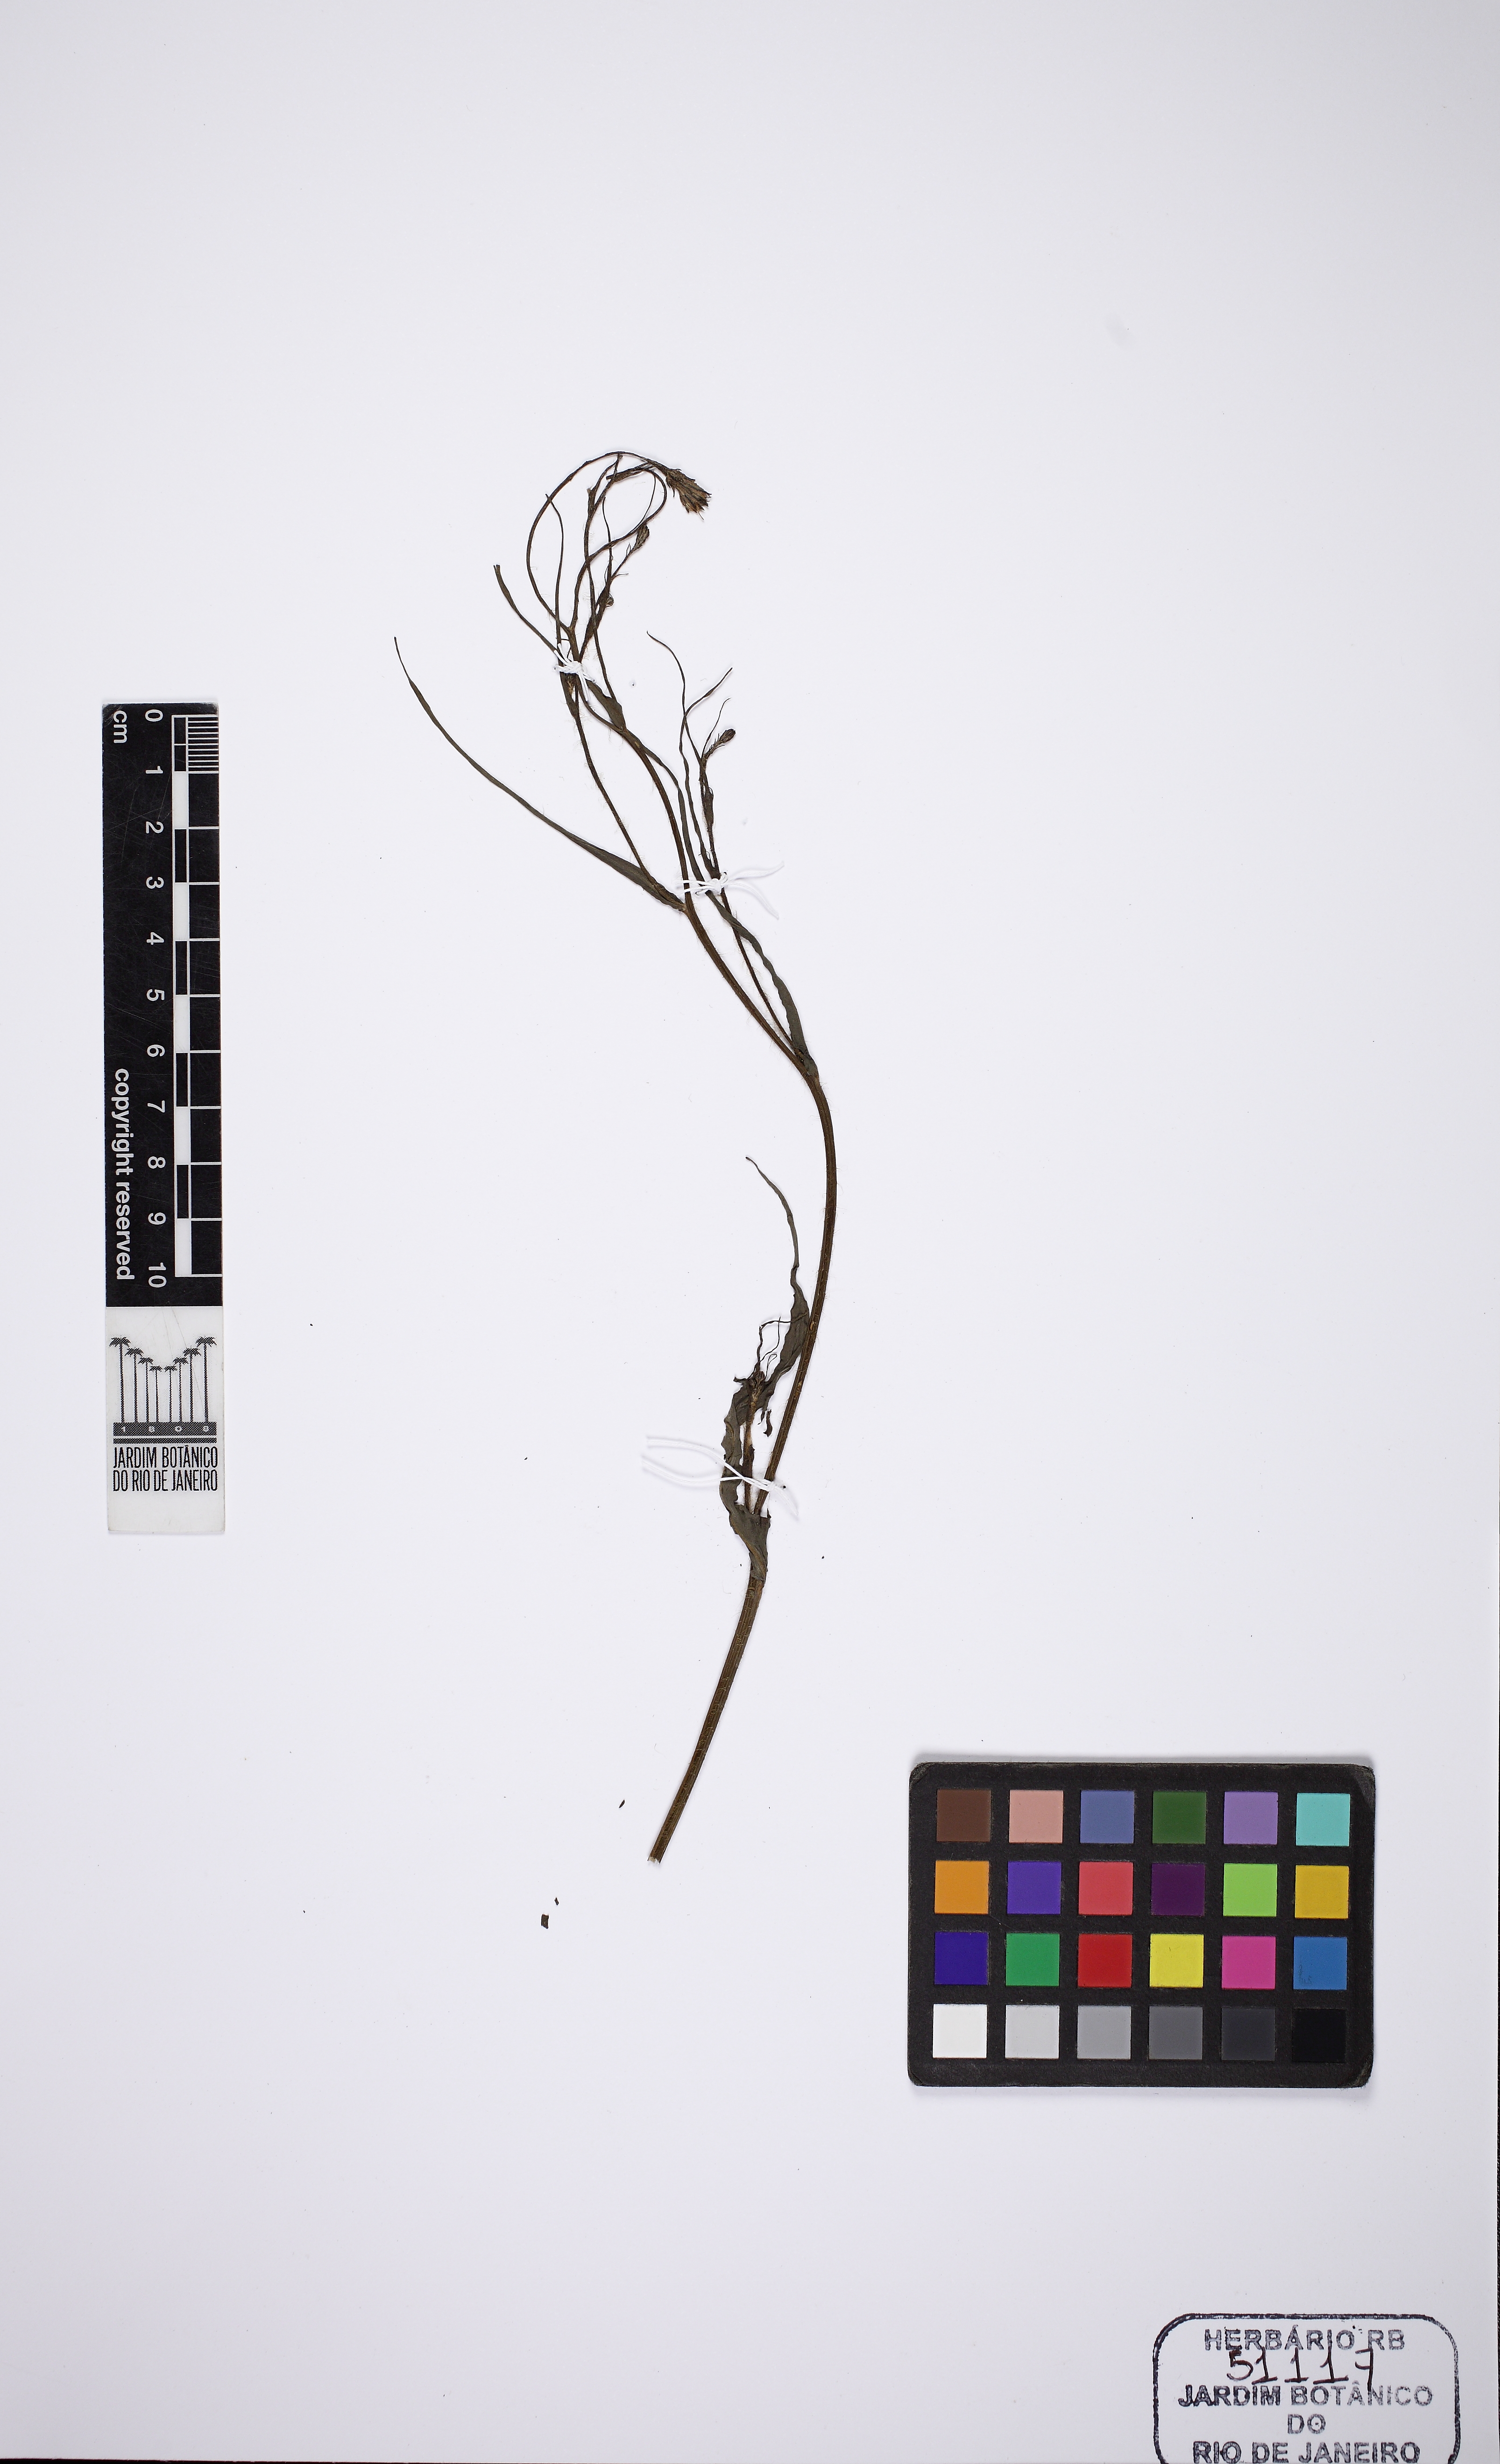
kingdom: Plantae
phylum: Tracheophyta
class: Magnoliopsida
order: Asterales
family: Asteraceae
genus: Hypochaeris
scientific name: Hypochaeris albiflora
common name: White flatweed
